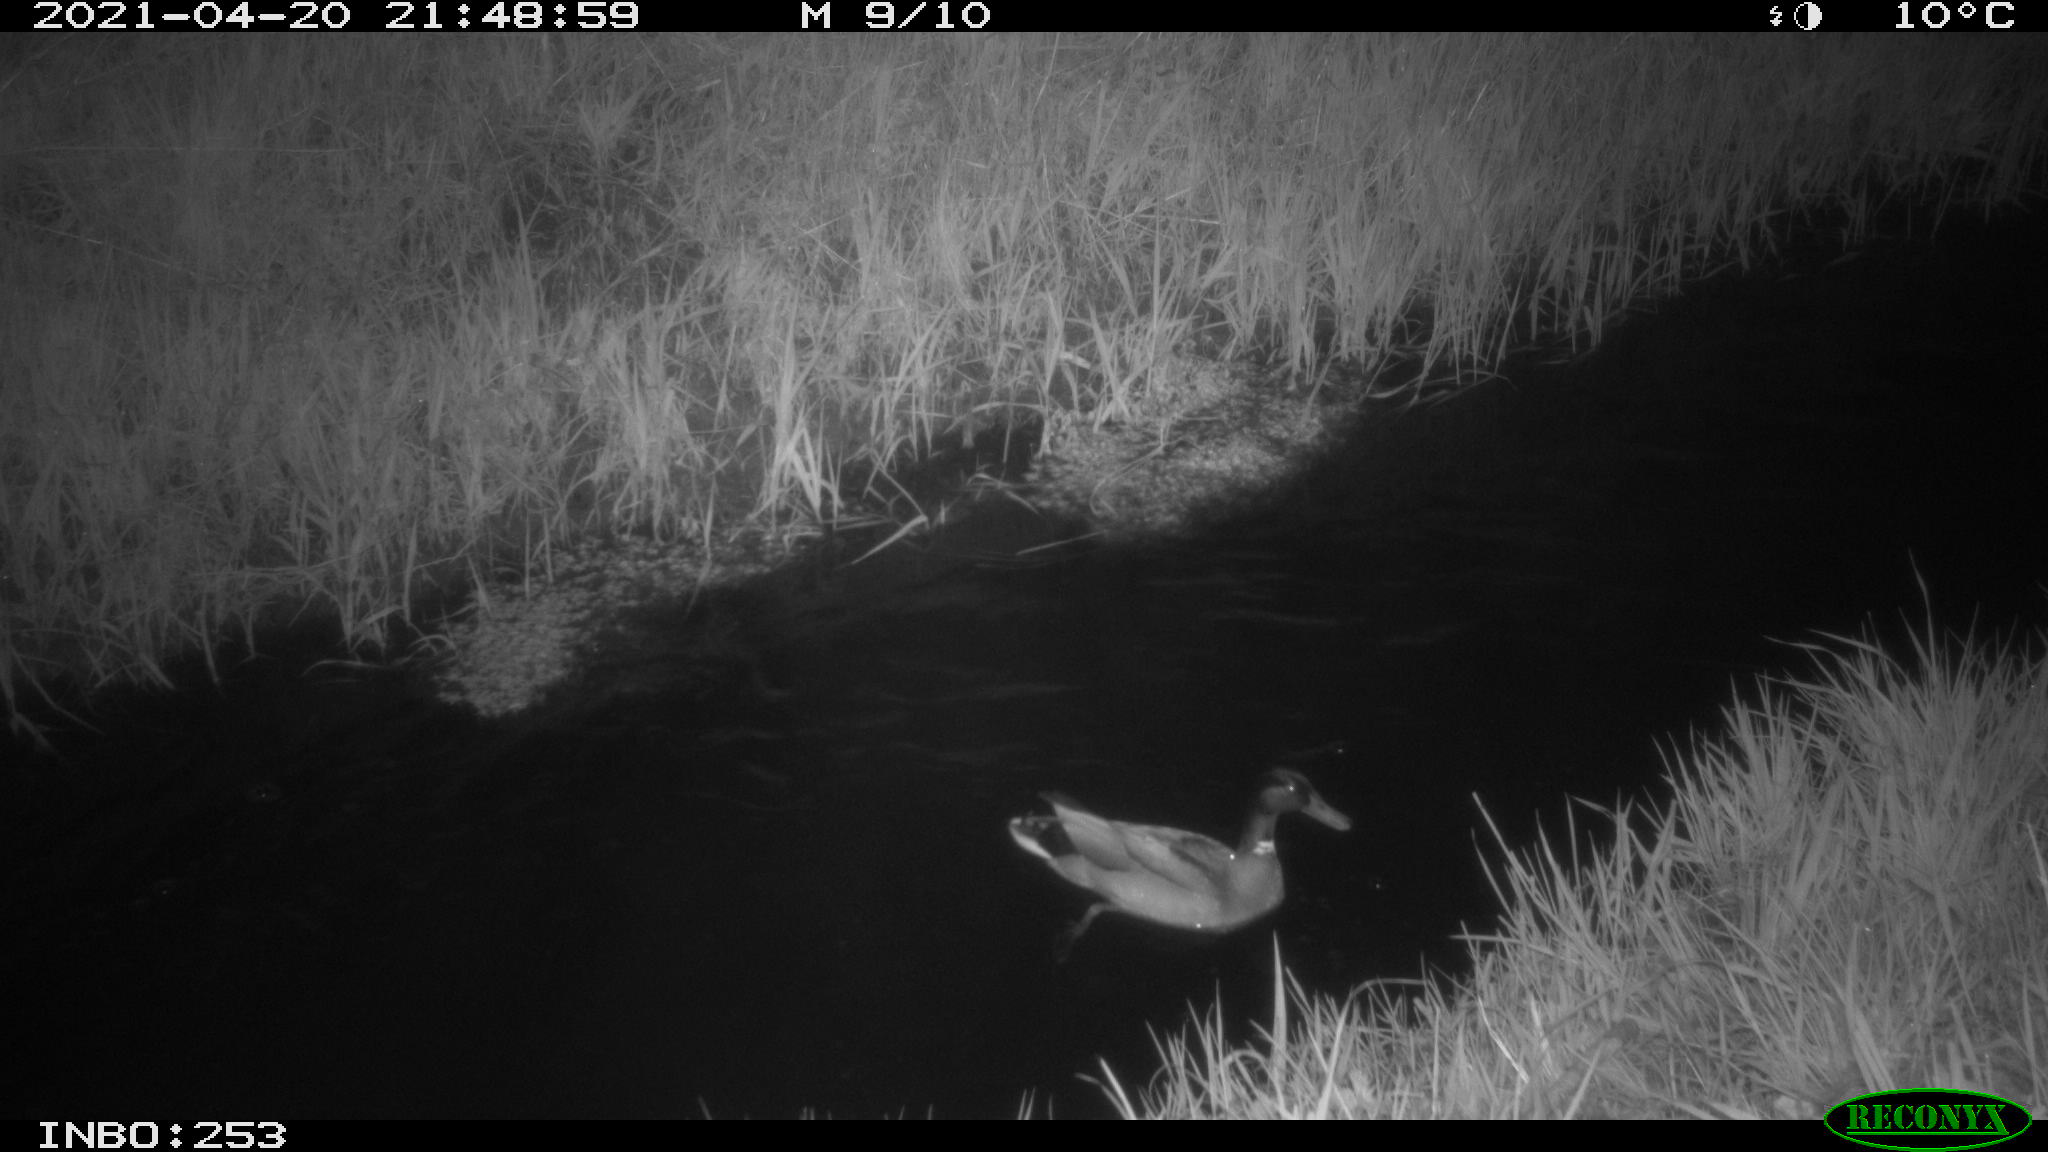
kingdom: Animalia
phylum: Chordata
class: Aves
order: Anseriformes
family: Anatidae
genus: Anas
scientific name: Anas platyrhynchos
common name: Mallard
